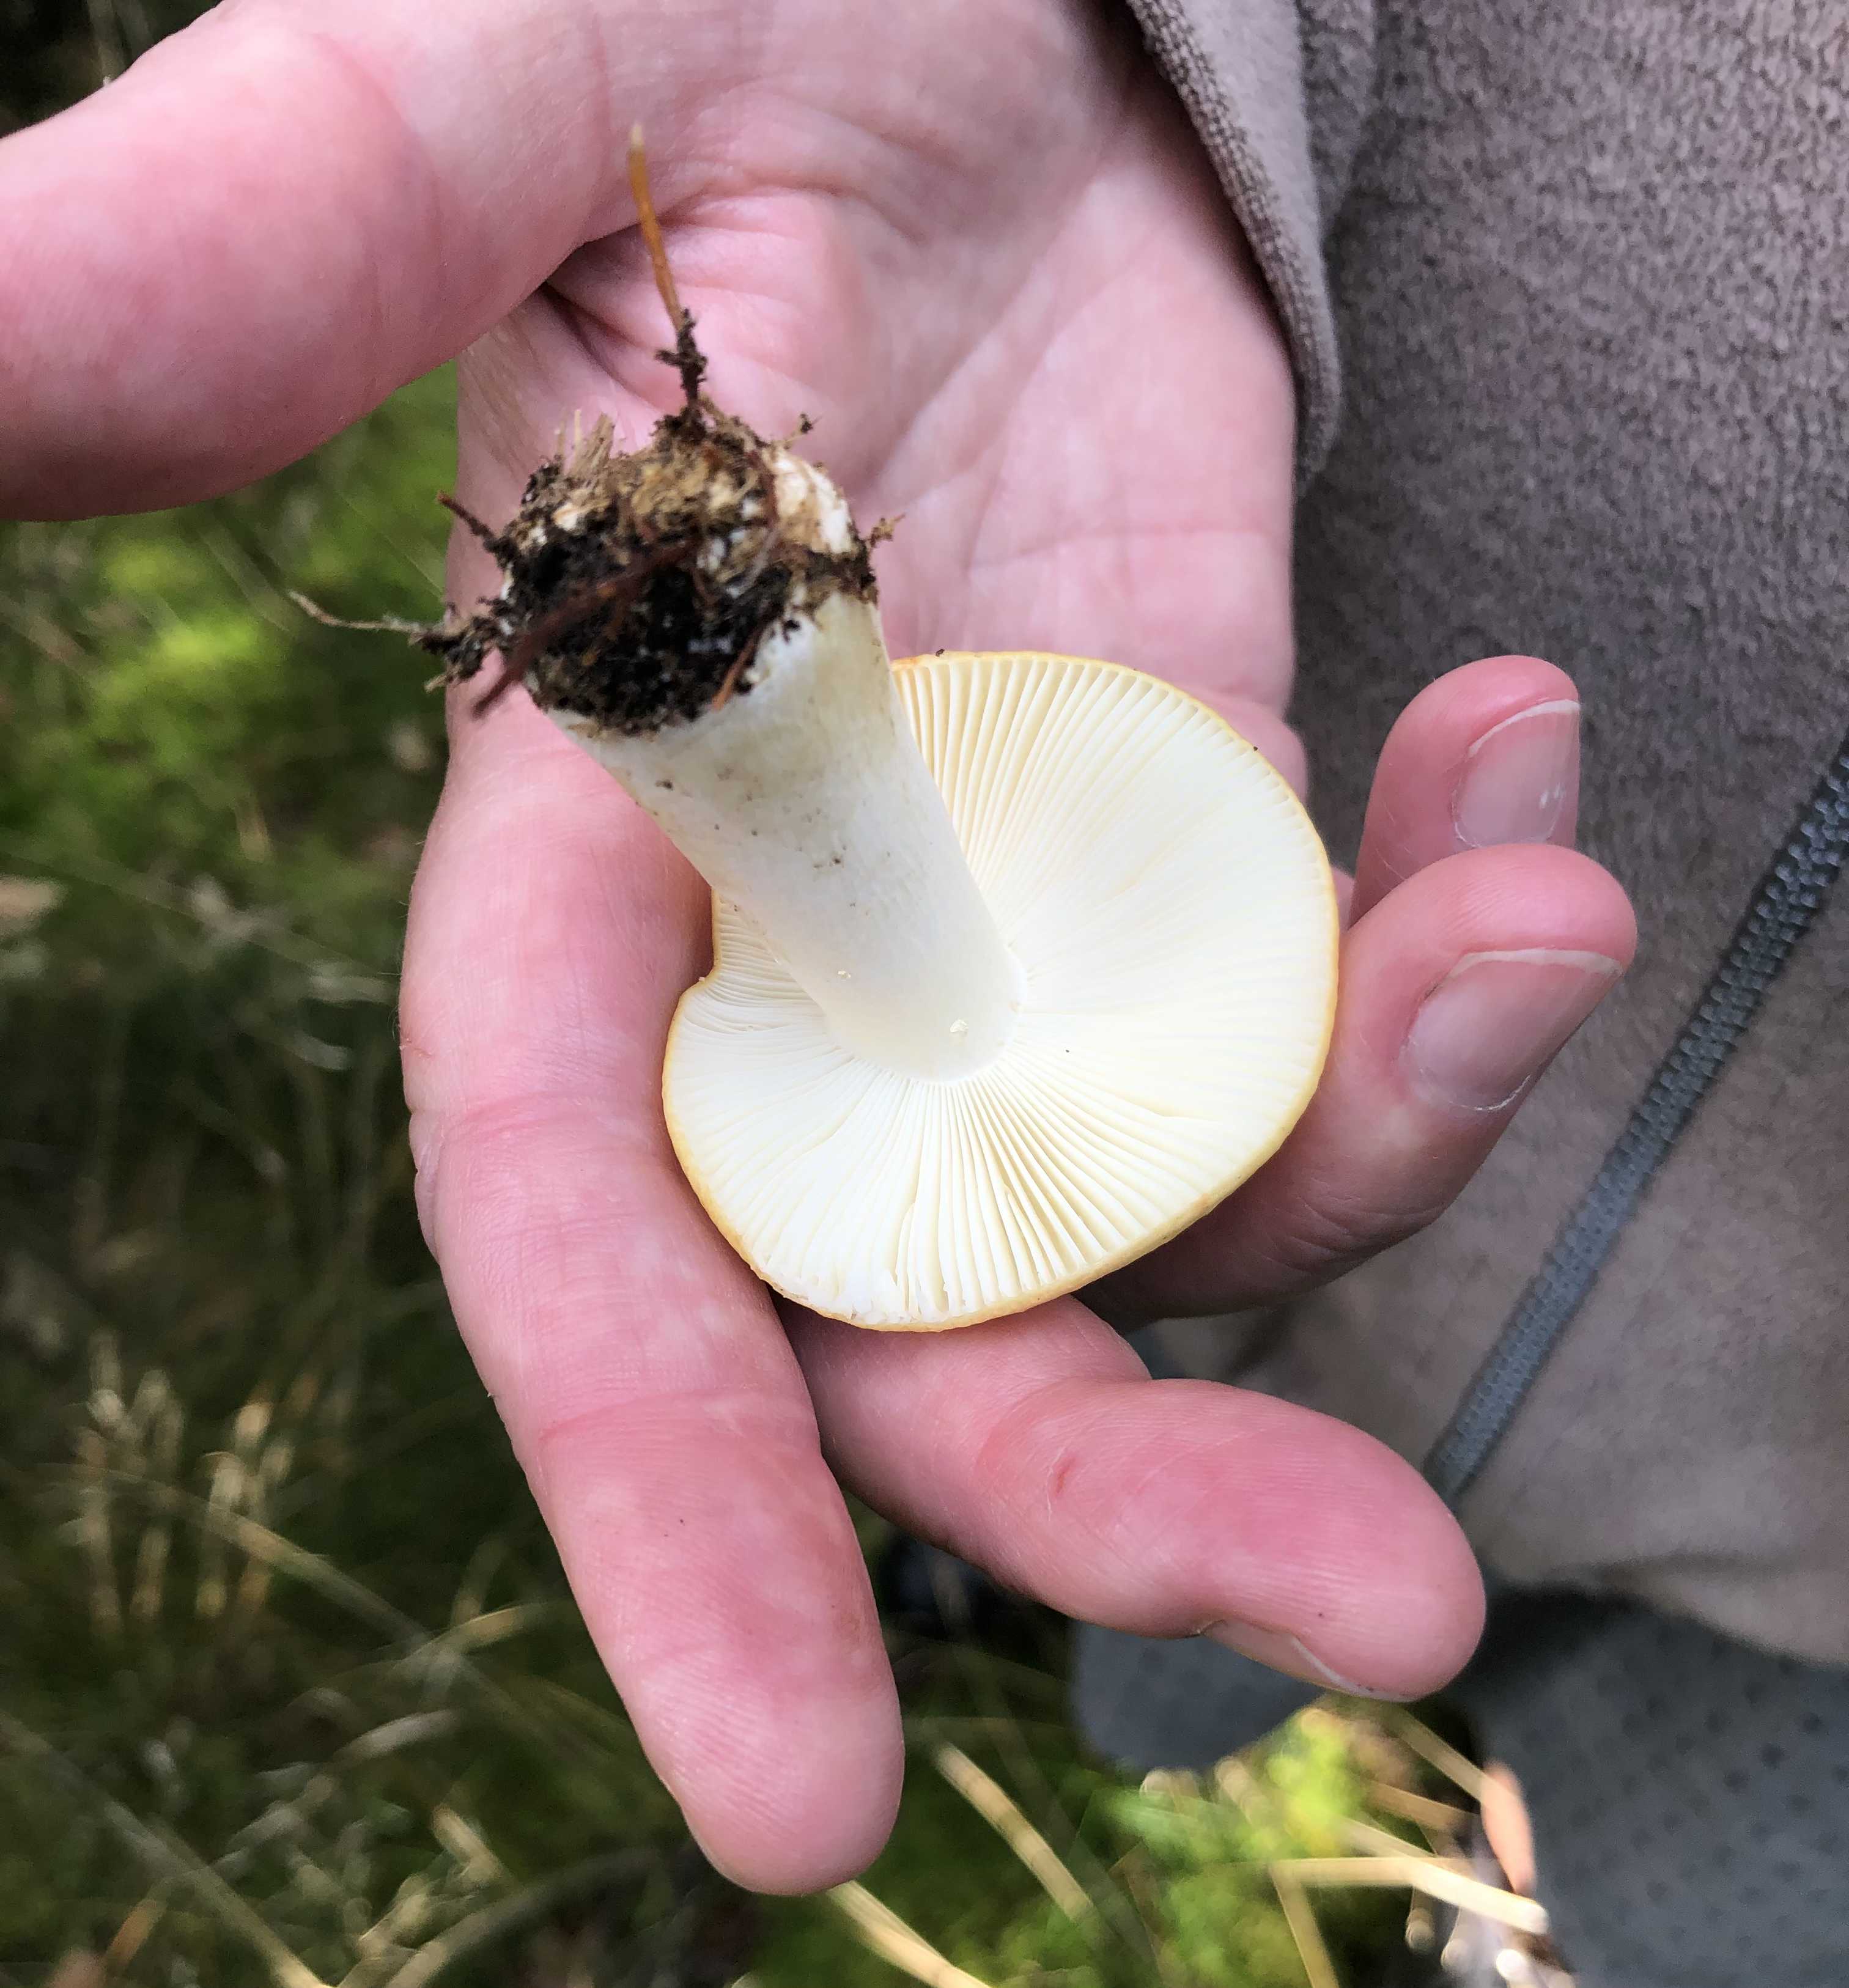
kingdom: Fungi
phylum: Basidiomycota
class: Agaricomycetes
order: Russulales
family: Russulaceae
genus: Russula
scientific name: Russula ochroleuca
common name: okkergul skørhat
